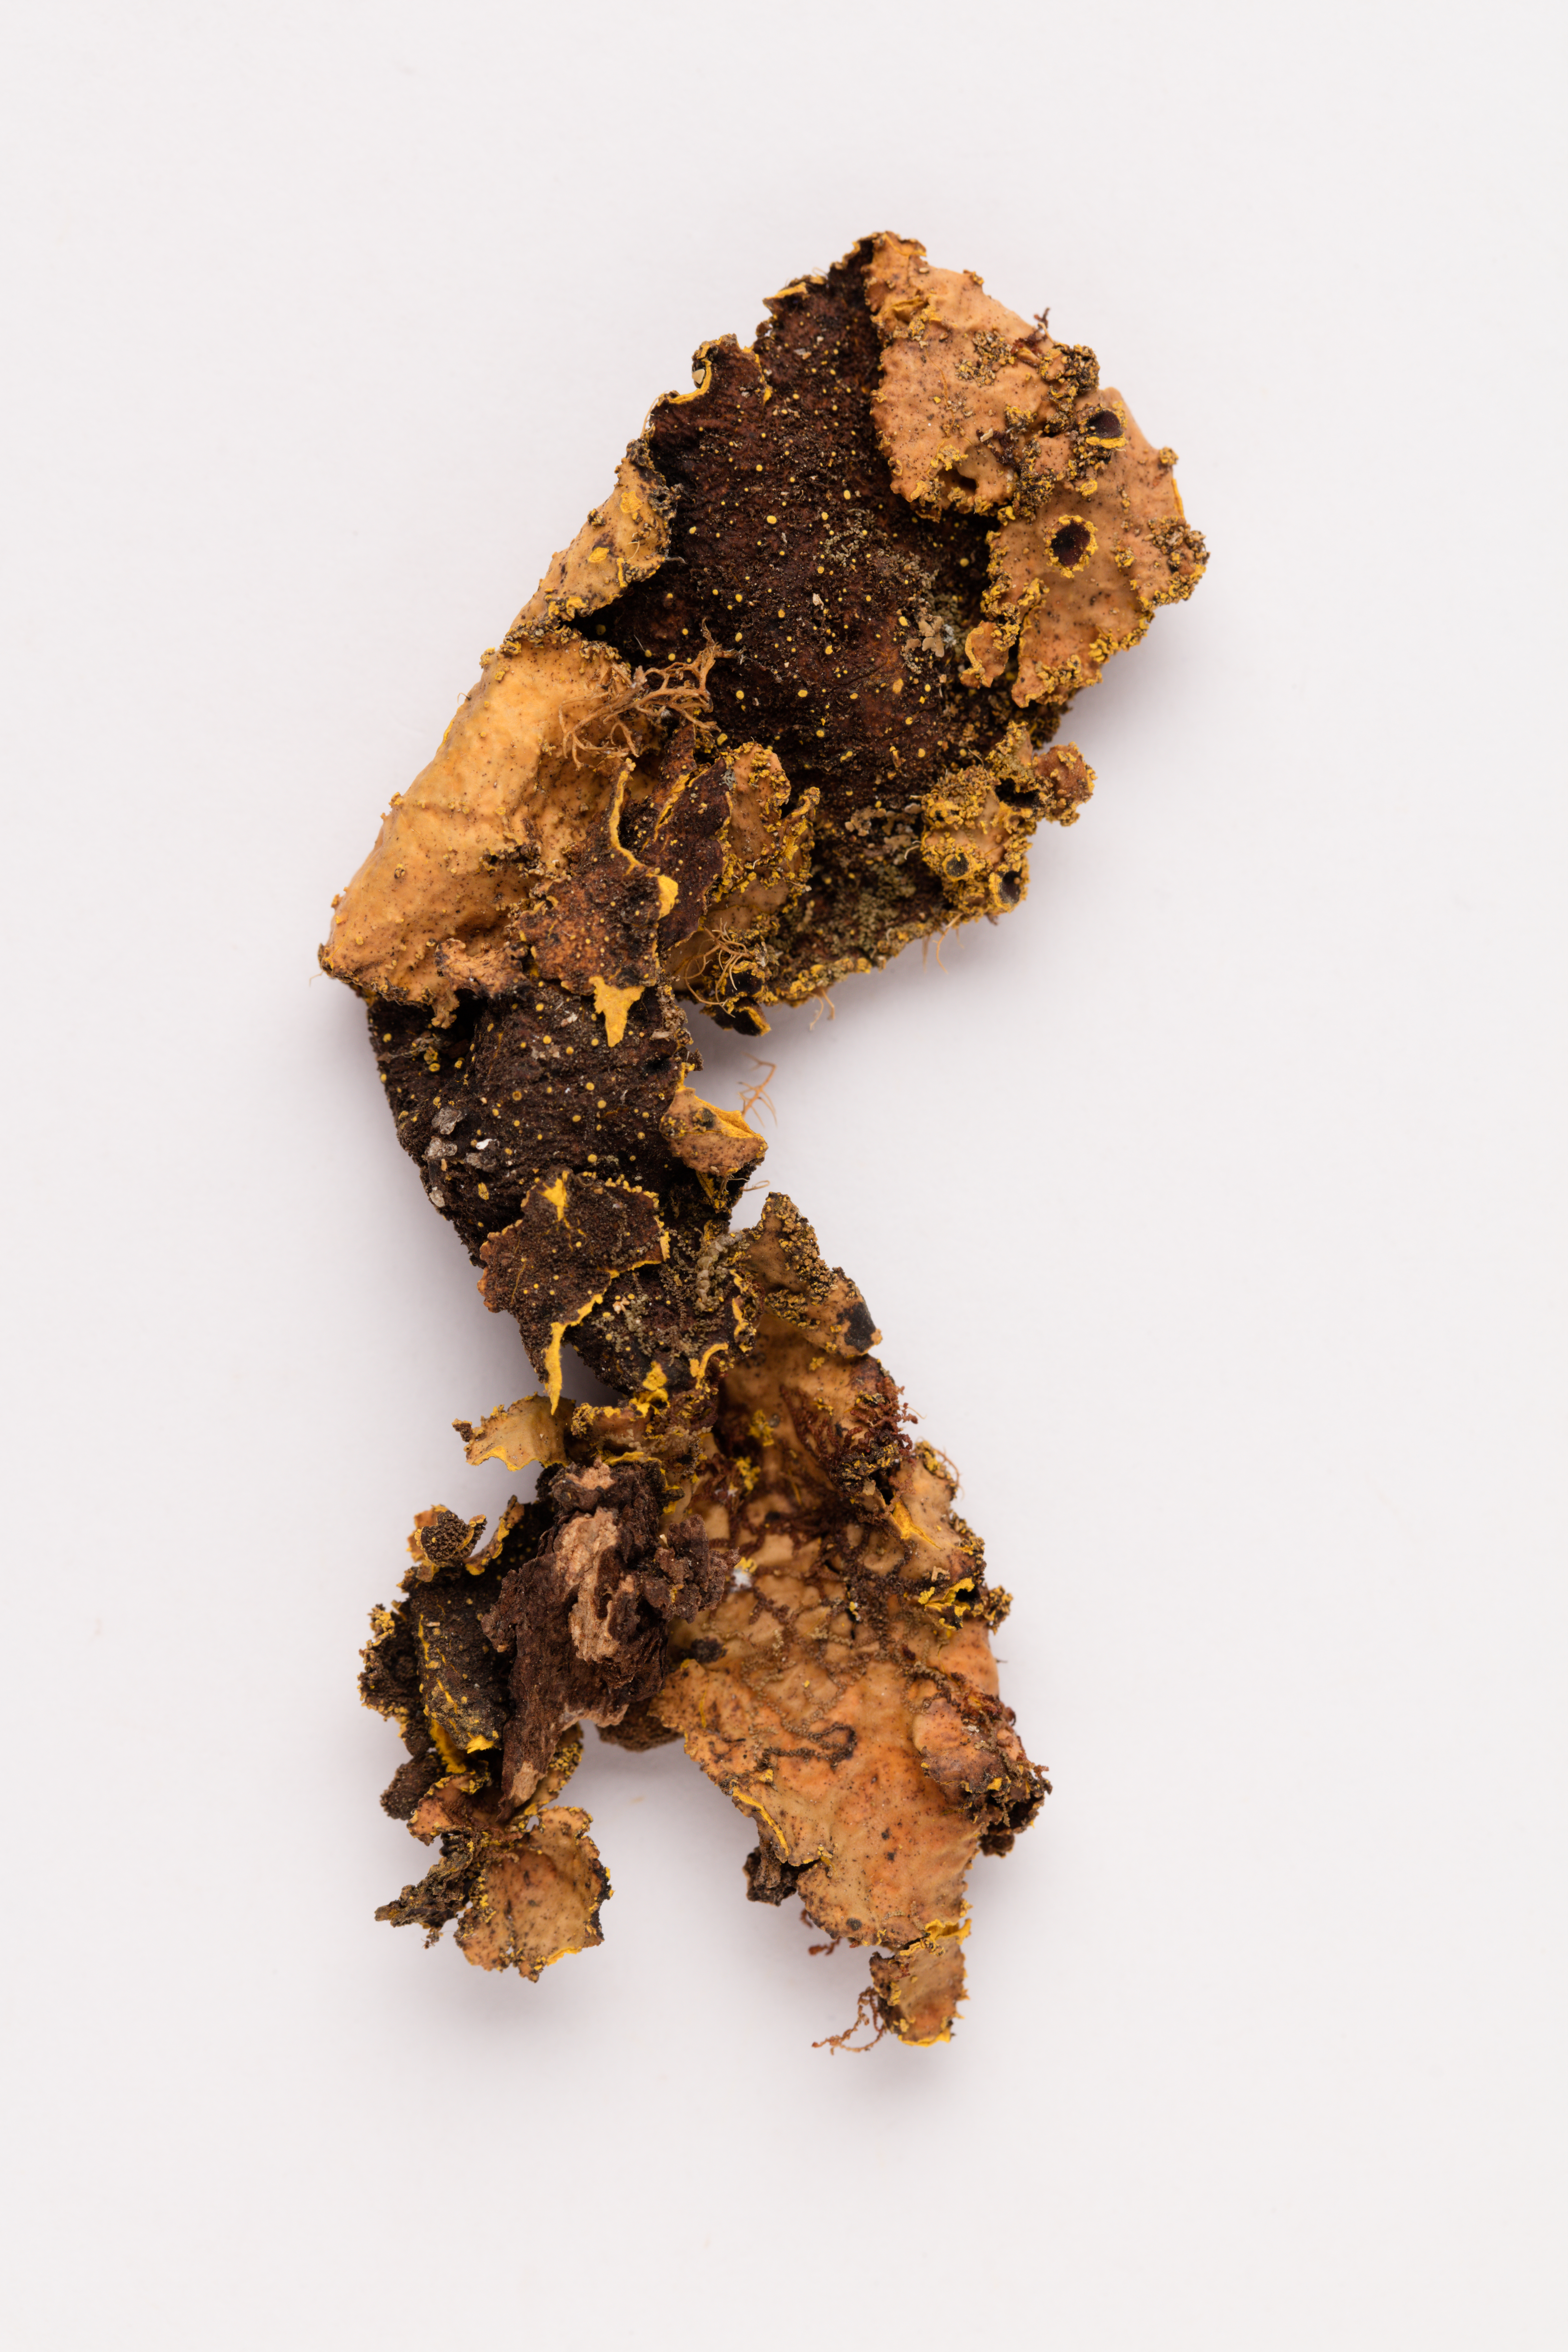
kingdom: Fungi
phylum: Ascomycota
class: Lecanoromycetes
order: Peltigerales
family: Lobariaceae
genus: Yarrumia
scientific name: Yarrumia colensoi
